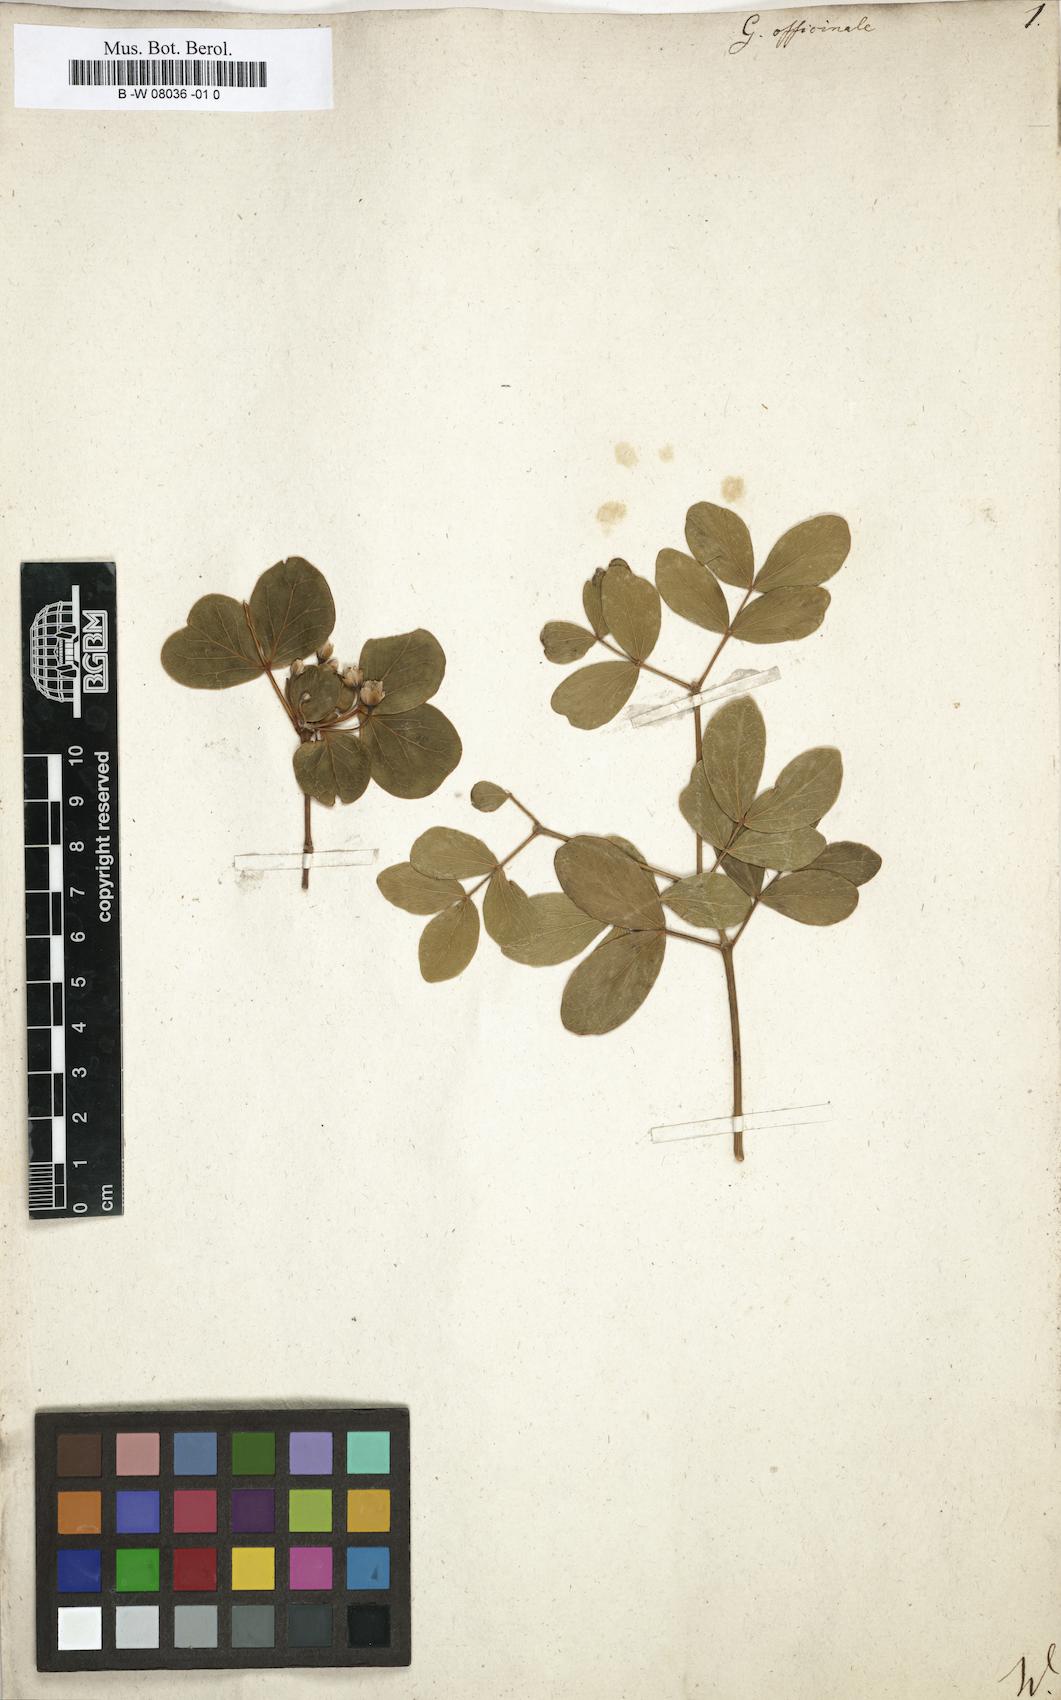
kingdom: Plantae
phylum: Tracheophyta
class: Magnoliopsida
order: Zygophyllales
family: Zygophyllaceae
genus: Guaiacum
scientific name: Guaiacum officinale
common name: Lignum vitae
